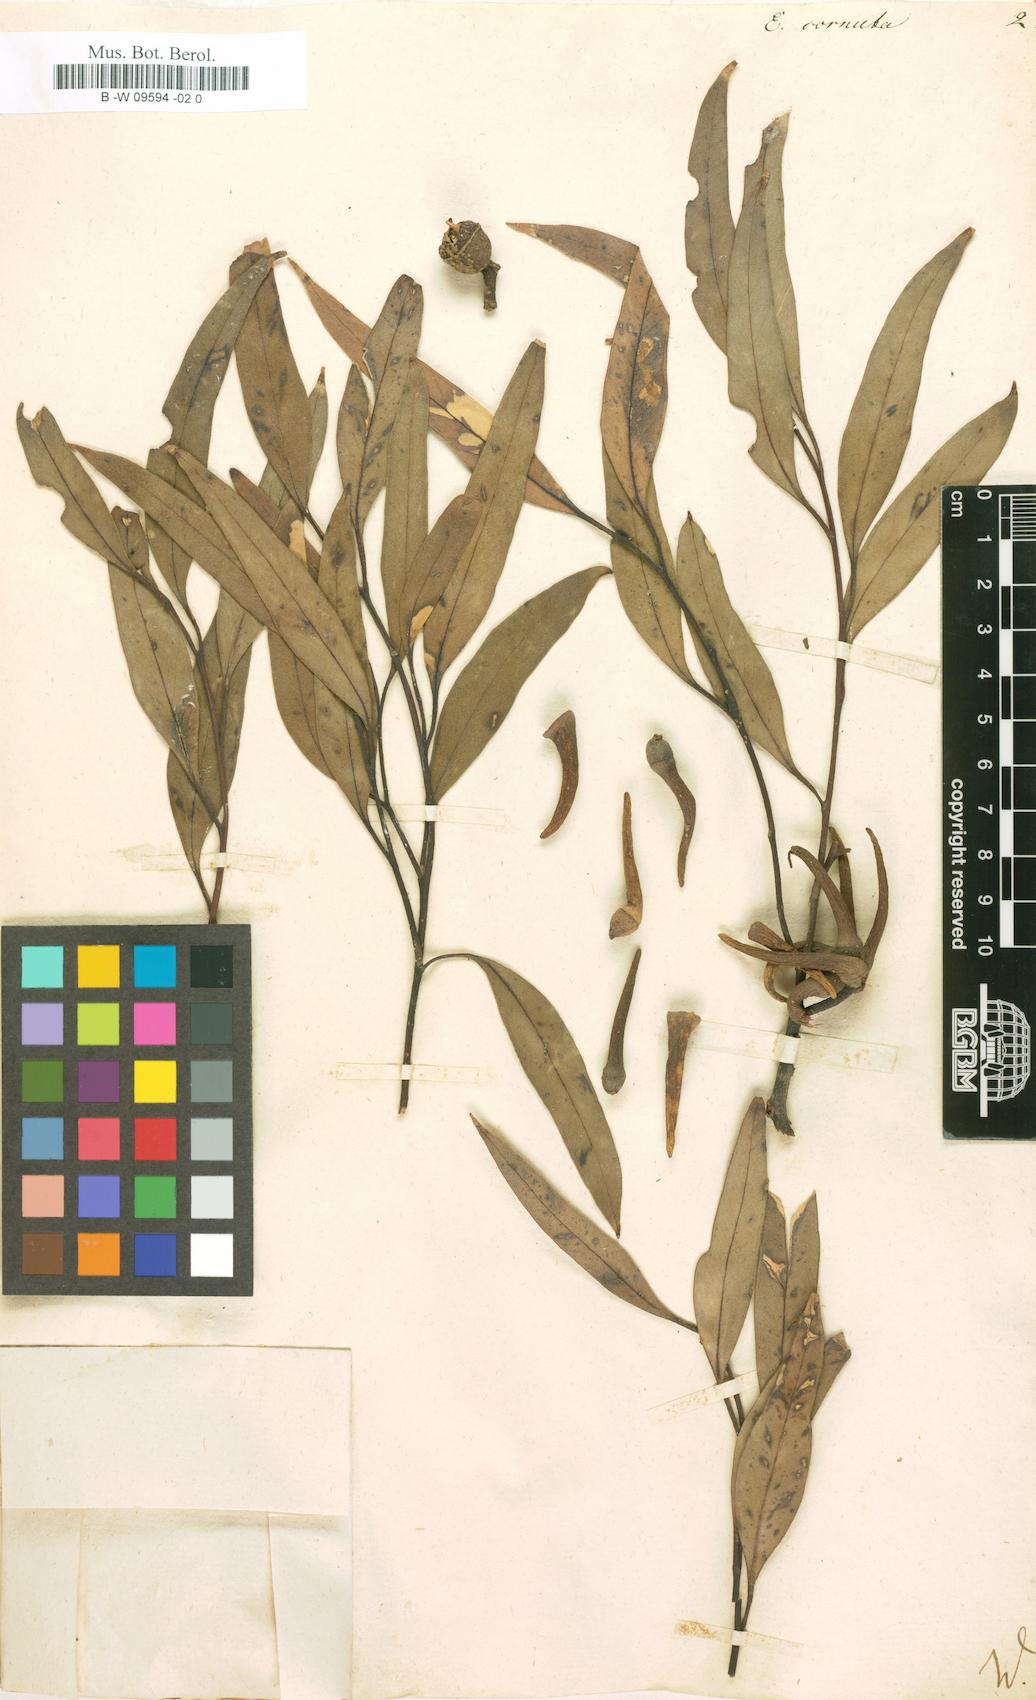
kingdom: Plantae
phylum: Tracheophyta
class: Magnoliopsida
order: Myrtales
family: Myrtaceae
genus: Eucalyptus
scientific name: Eucalyptus cornuta
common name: Yate
